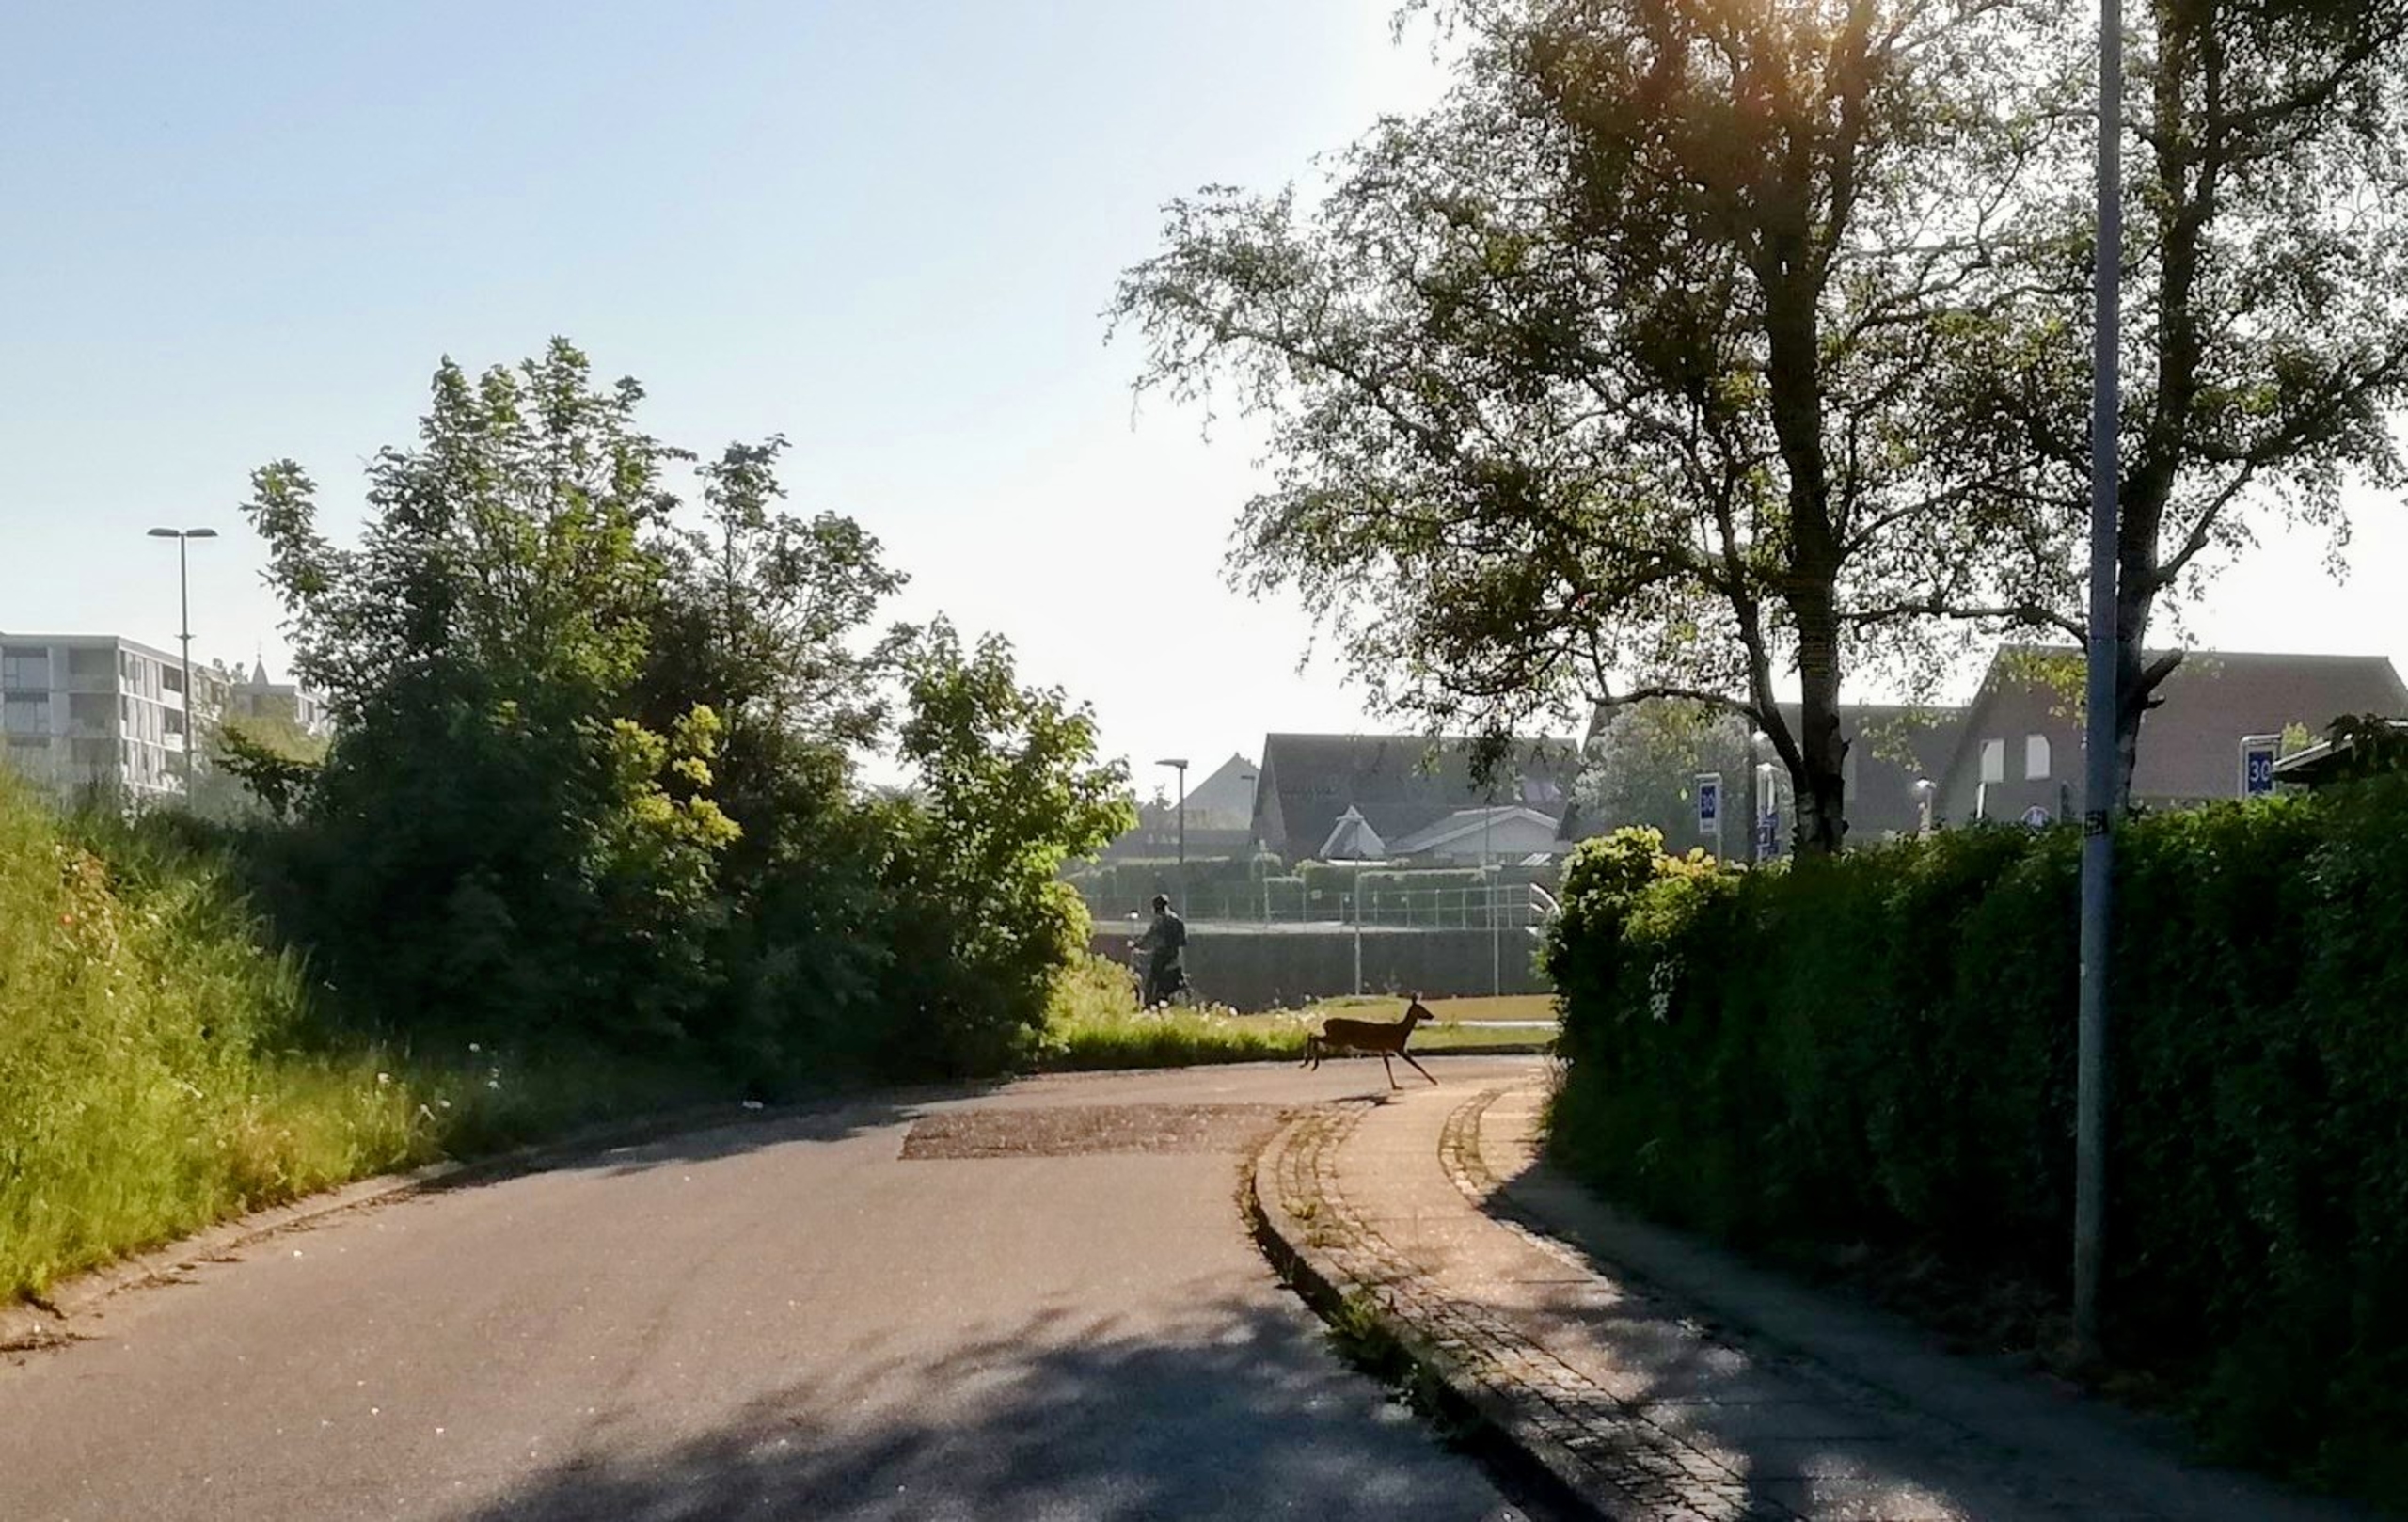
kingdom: Animalia
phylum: Chordata
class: Mammalia
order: Artiodactyla
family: Cervidae
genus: Capreolus
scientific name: Capreolus capreolus
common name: Rådyr
